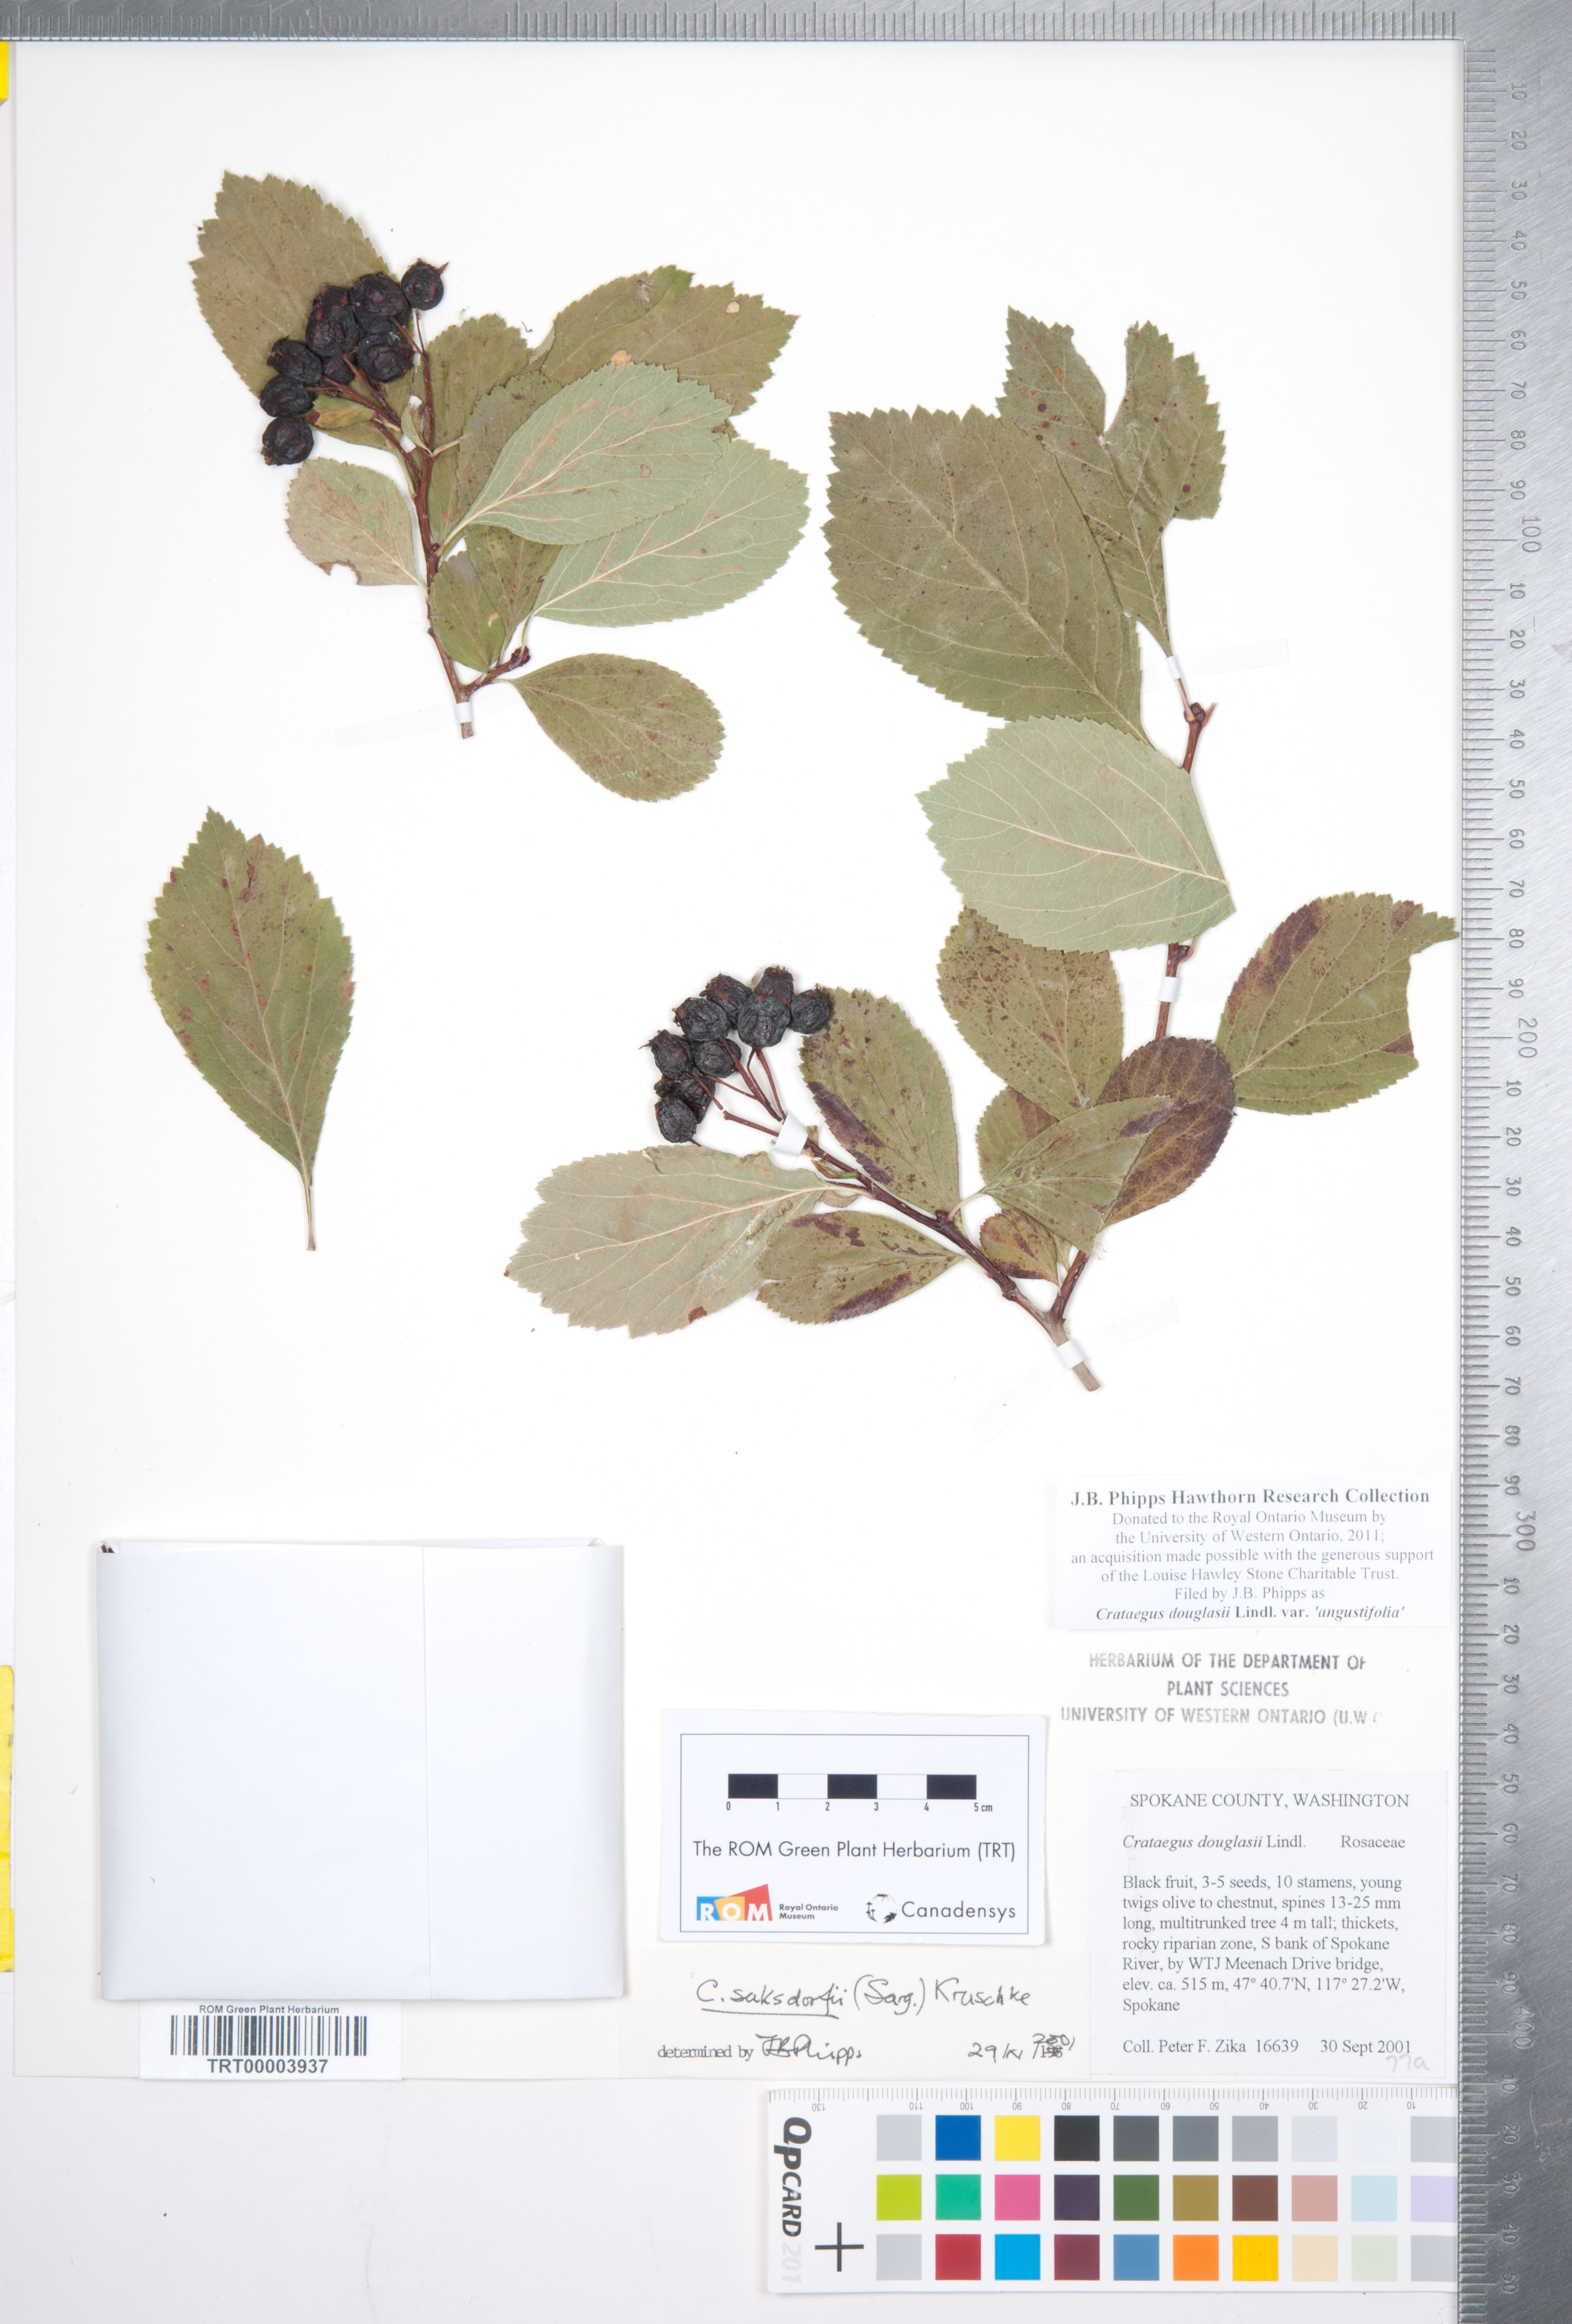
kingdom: Plantae
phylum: Tracheophyta
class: Magnoliopsida
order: Rosales
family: Rosaceae
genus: Crataegus
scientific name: Crataegus douglasii
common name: Black hawthorn
